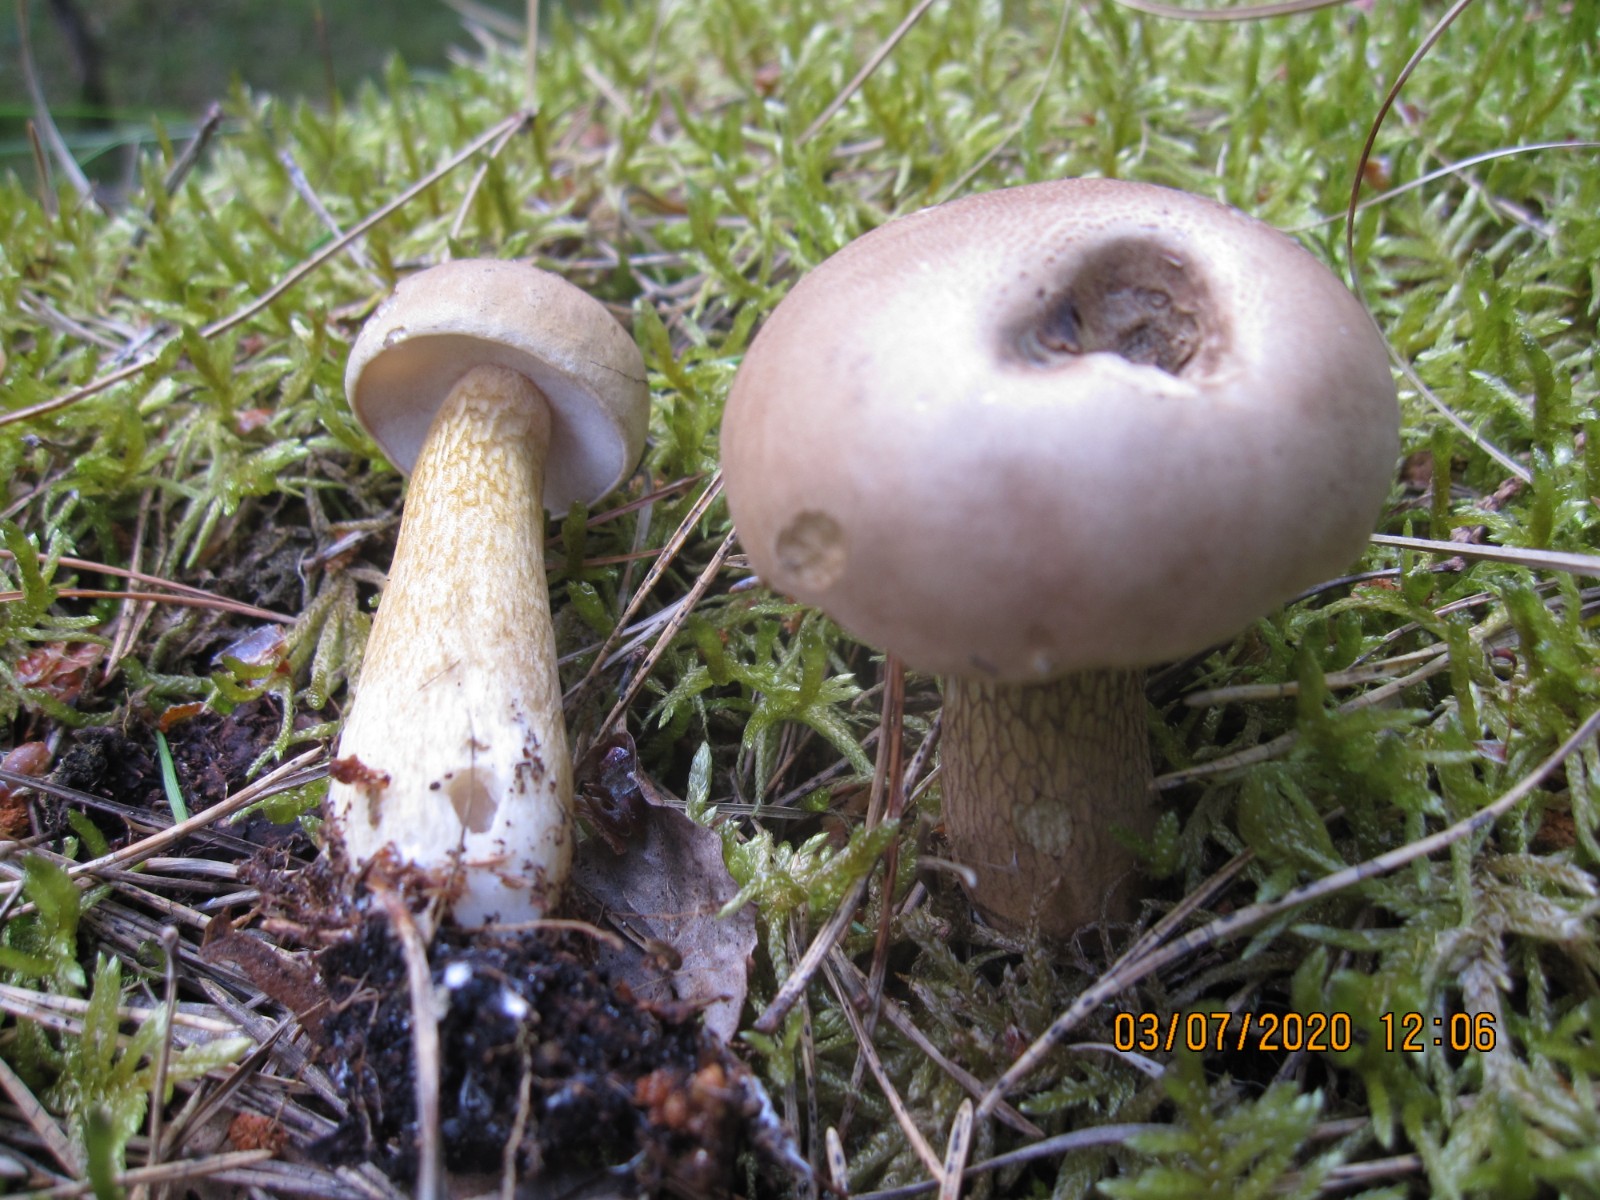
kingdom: Fungi
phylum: Basidiomycota
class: Agaricomycetes
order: Boletales
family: Boletaceae
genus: Tylopilus
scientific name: Tylopilus felleus
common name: galderørhat
